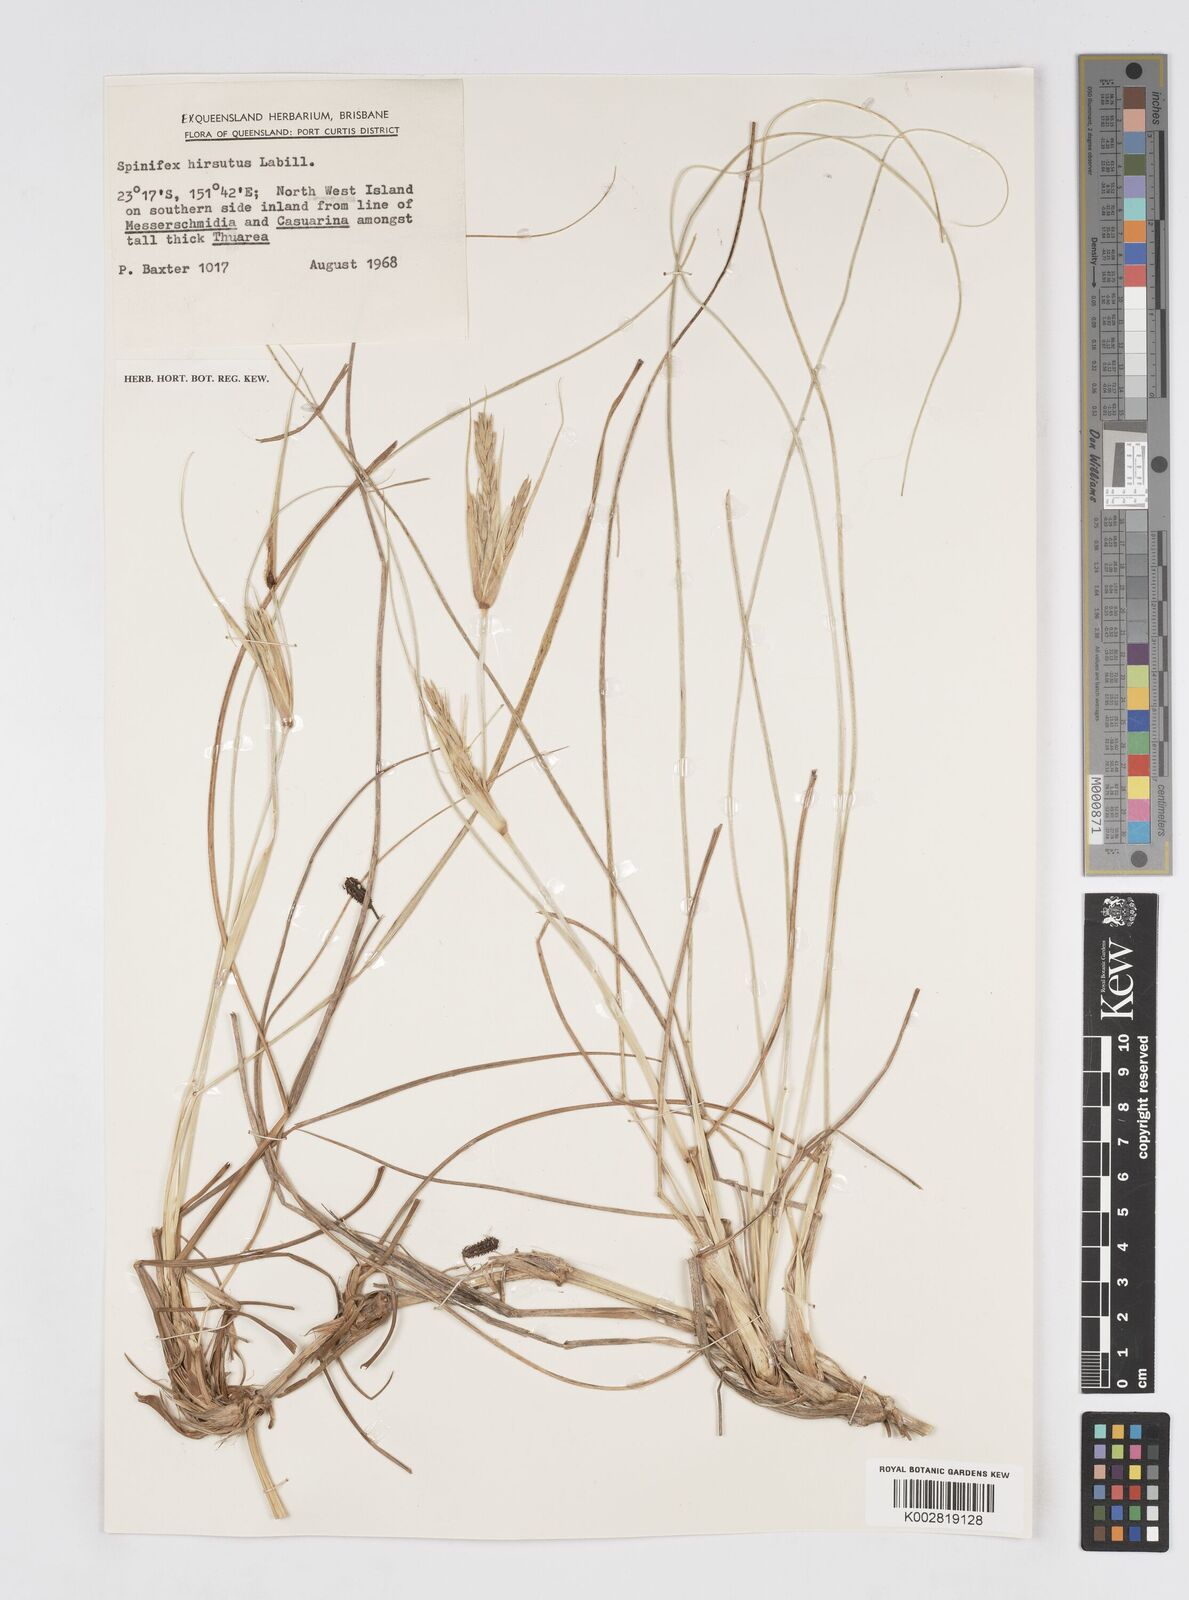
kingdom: Plantae
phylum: Tracheophyta
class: Liliopsida
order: Poales
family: Poaceae
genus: Spinifex
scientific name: Spinifex sericeus
